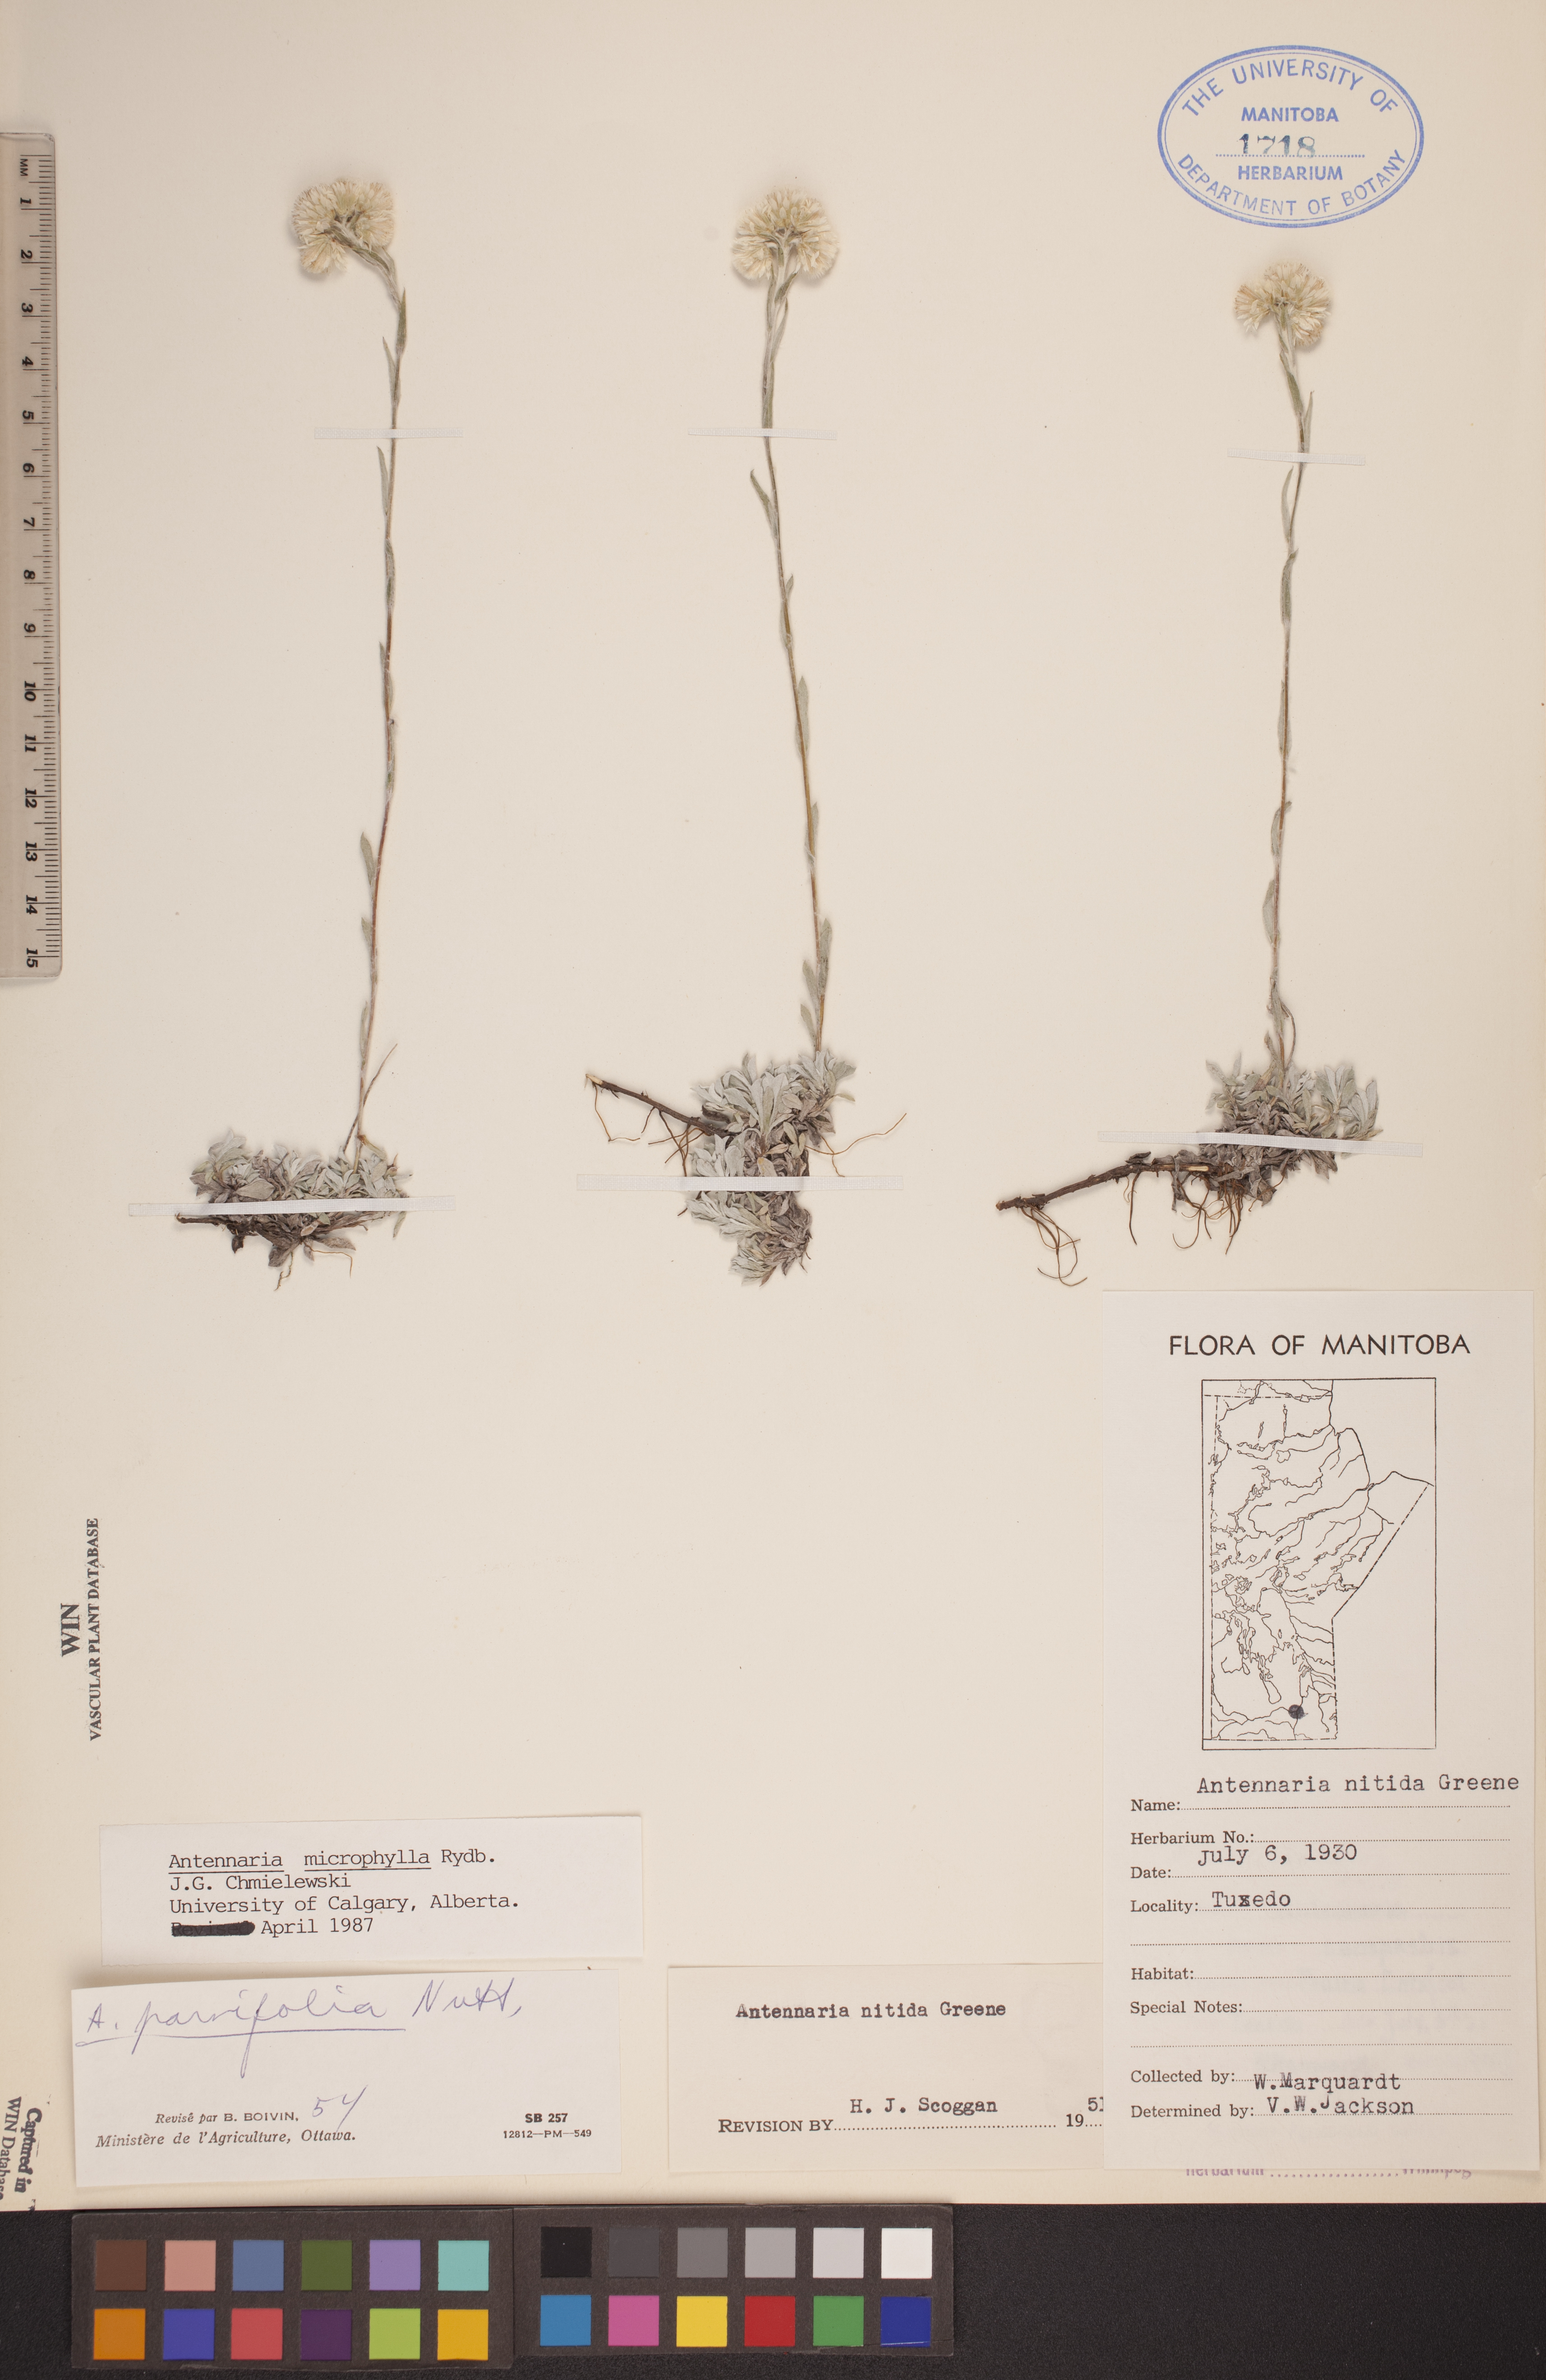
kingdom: Plantae
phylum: Tracheophyta
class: Magnoliopsida
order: Asterales
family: Asteraceae
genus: Antennaria
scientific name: Antennaria microphylla
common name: Littleleaf pussytoes
